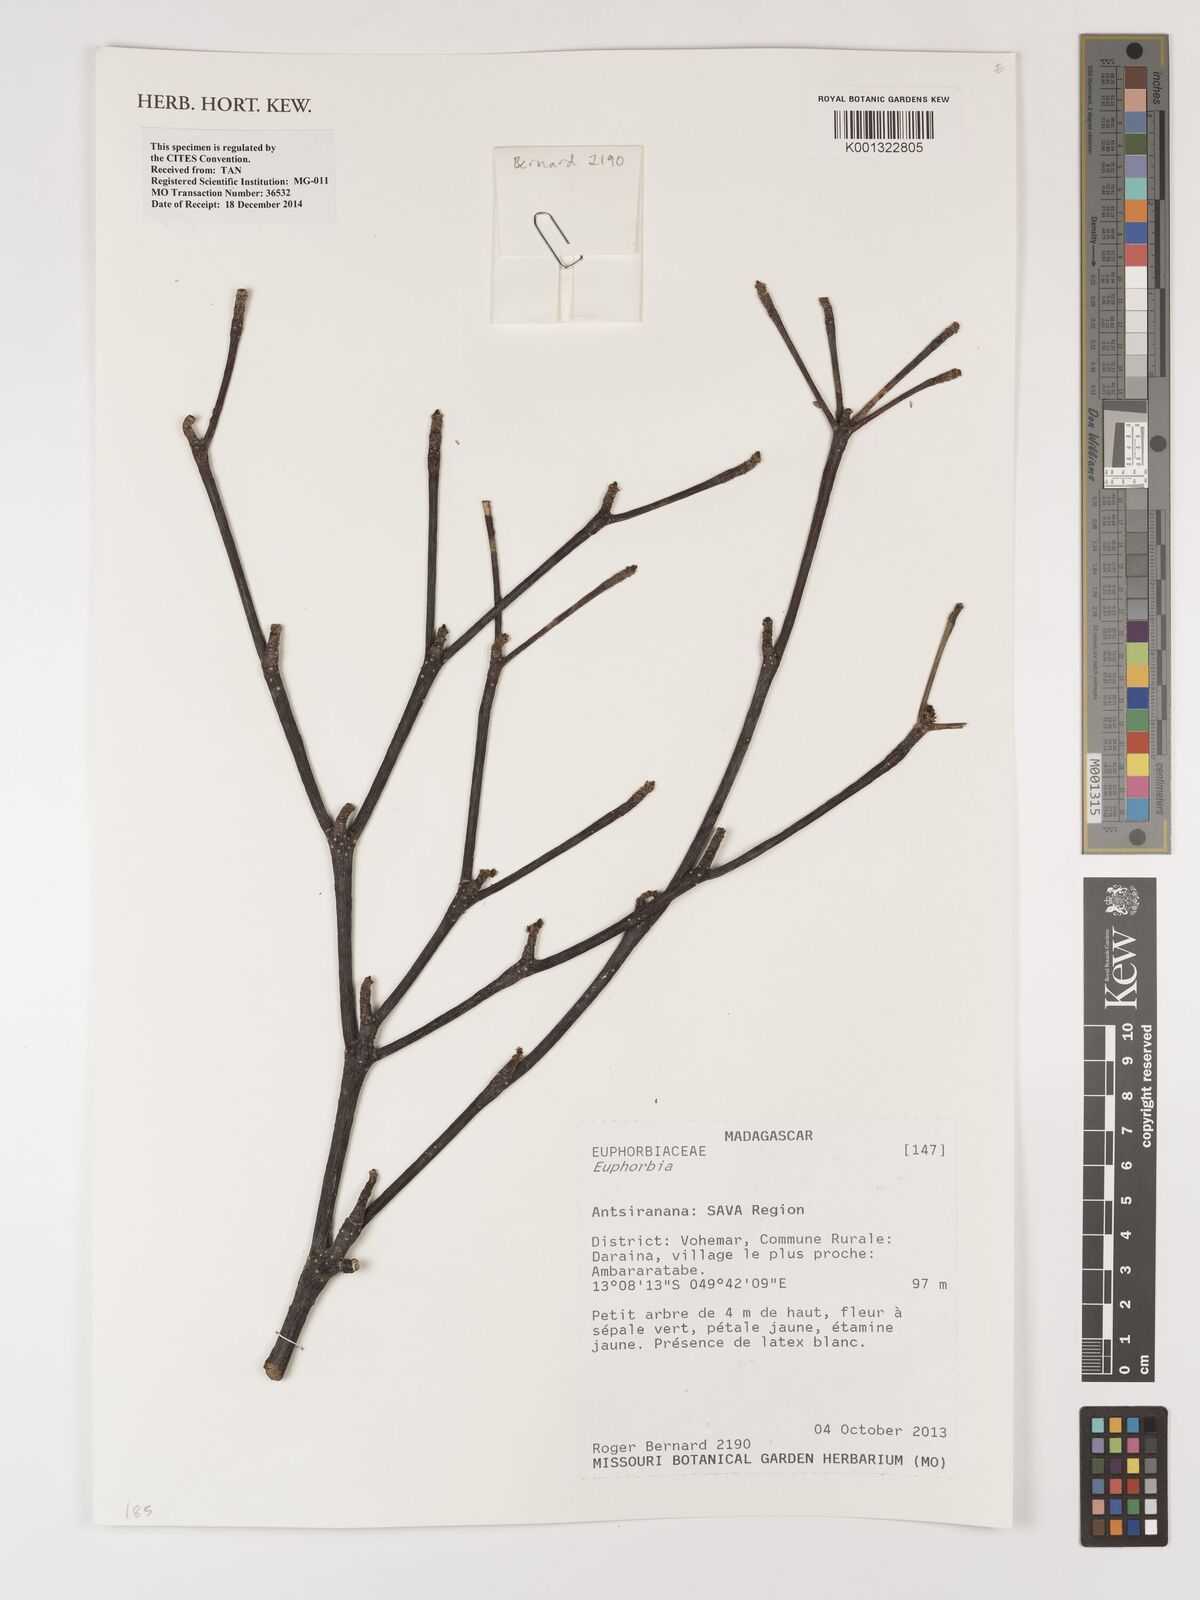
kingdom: Plantae
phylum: Tracheophyta
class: Magnoliopsida
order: Malpighiales
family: Euphorbiaceae
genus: Euphorbia
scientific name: Euphorbia
